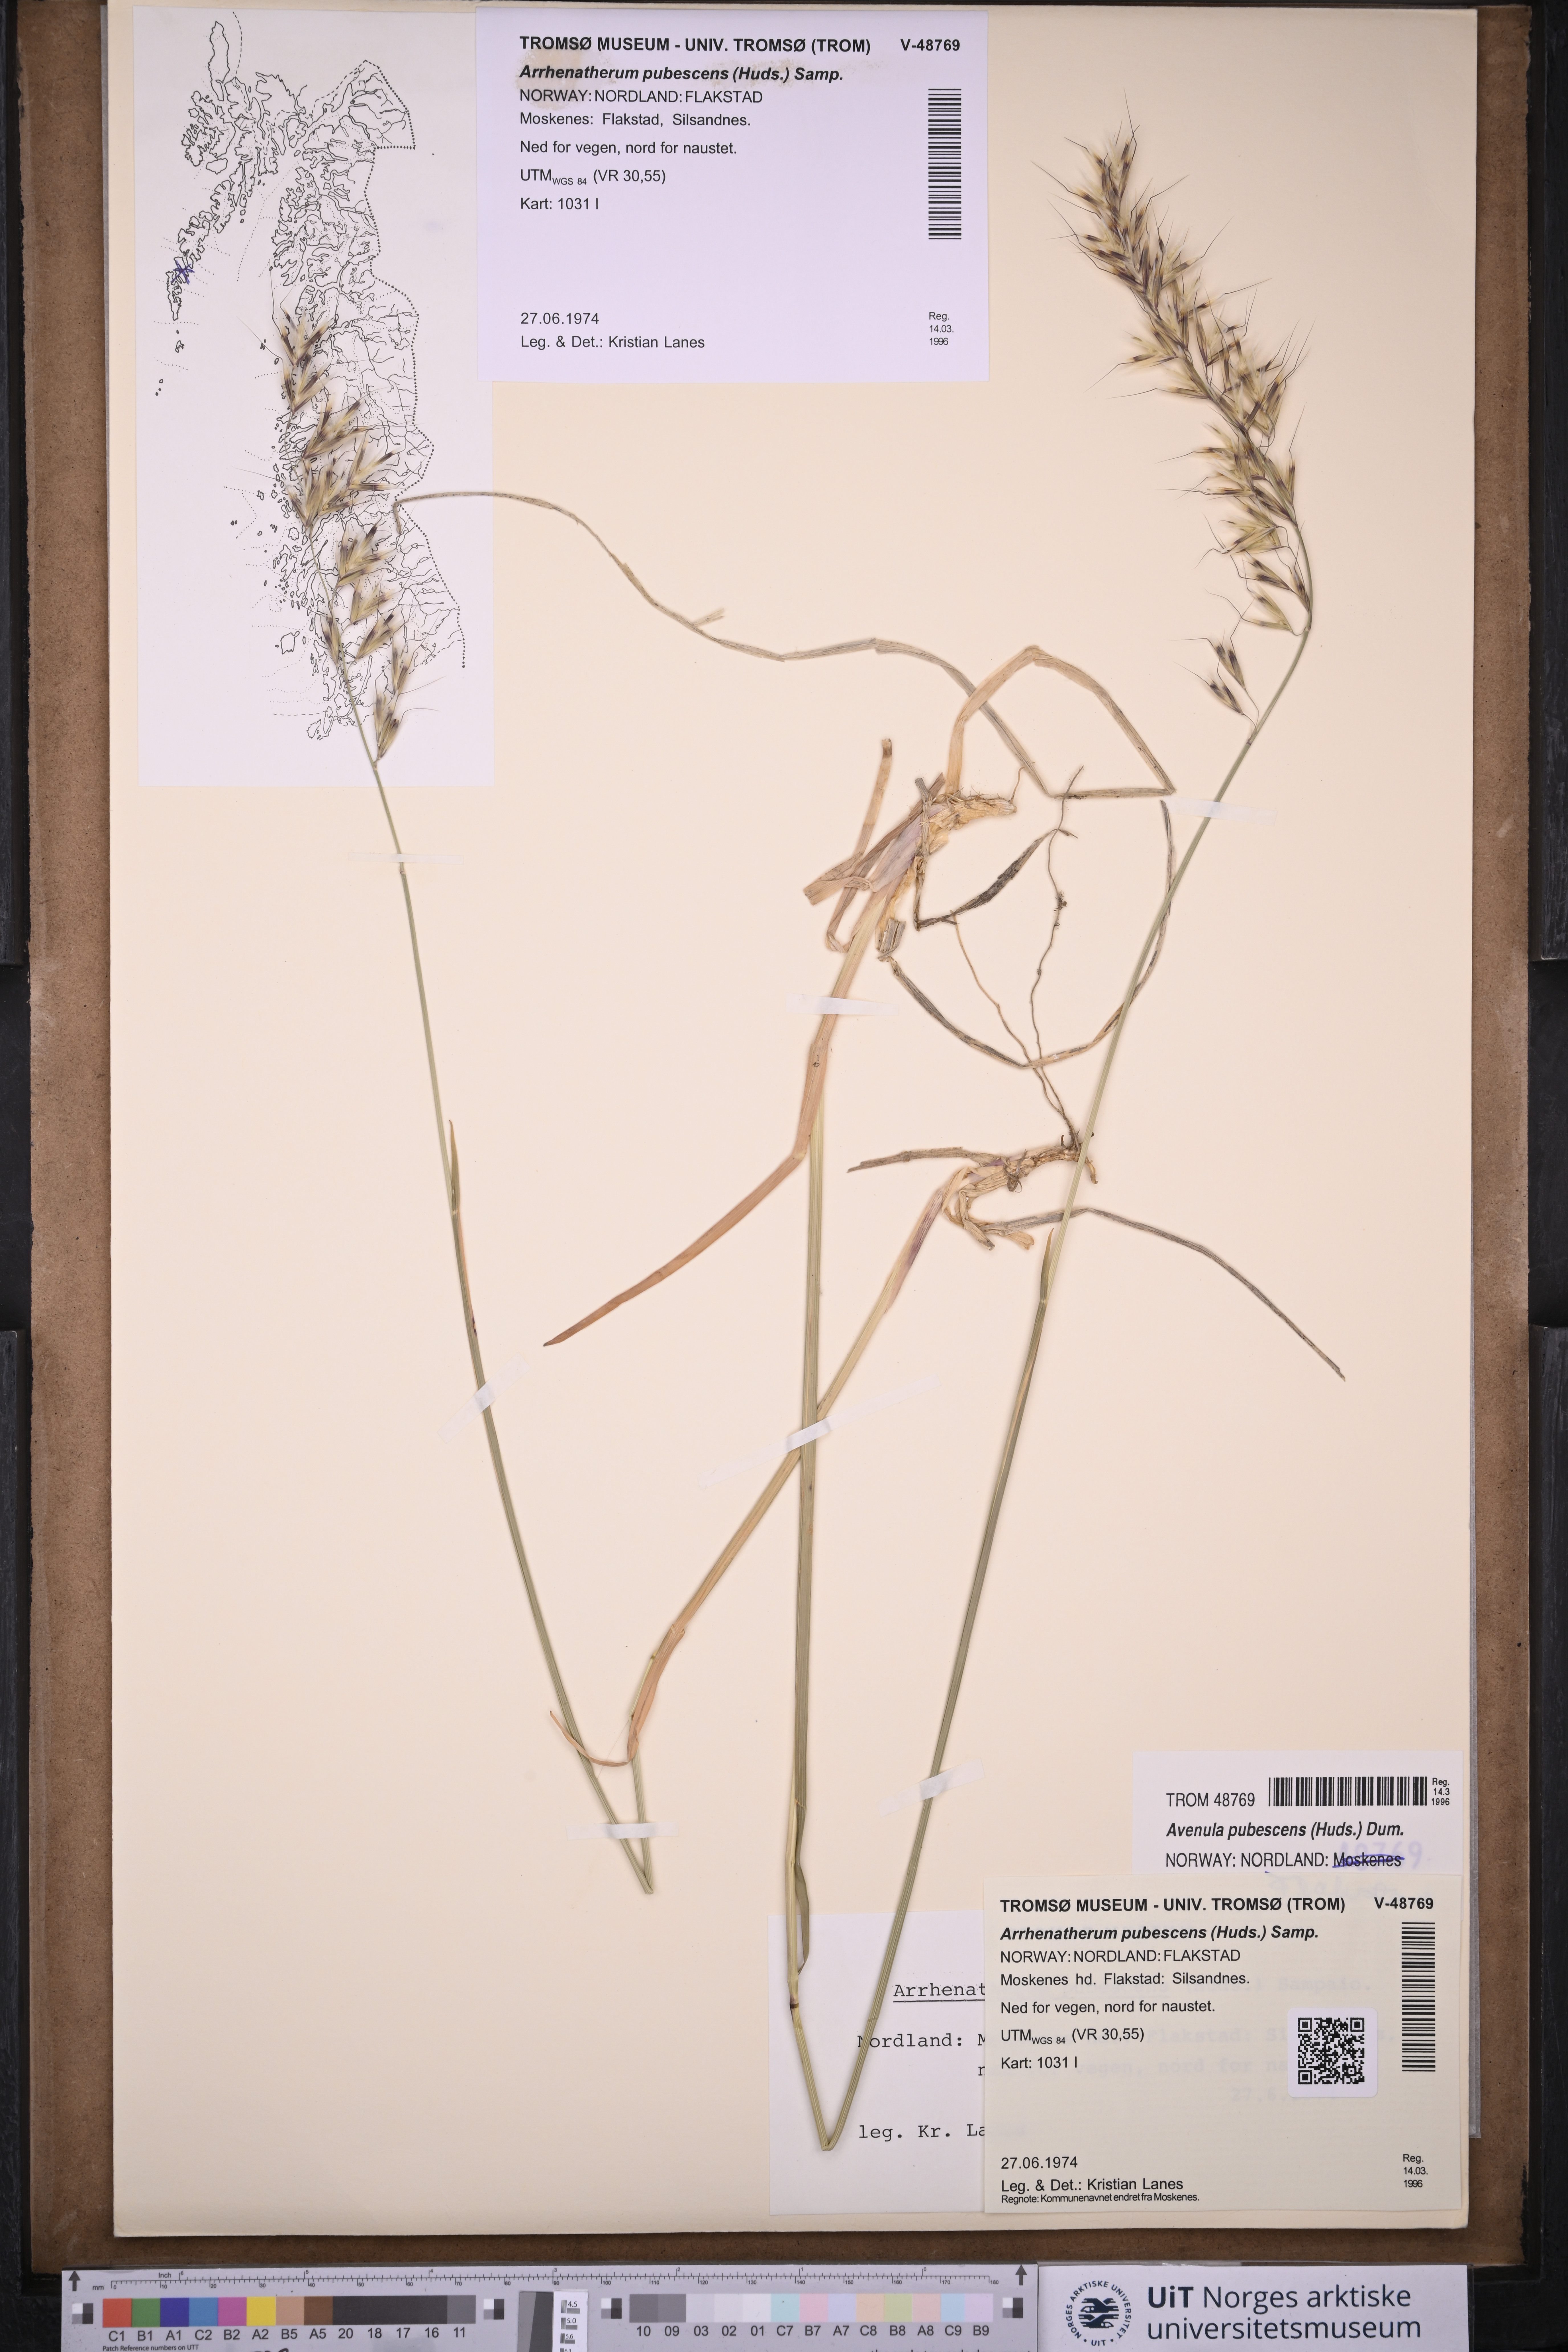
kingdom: Plantae
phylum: Tracheophyta
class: Liliopsida
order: Poales
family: Poaceae
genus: Avenula
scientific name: Avenula pubescens
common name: Downy alpine oatgrass
